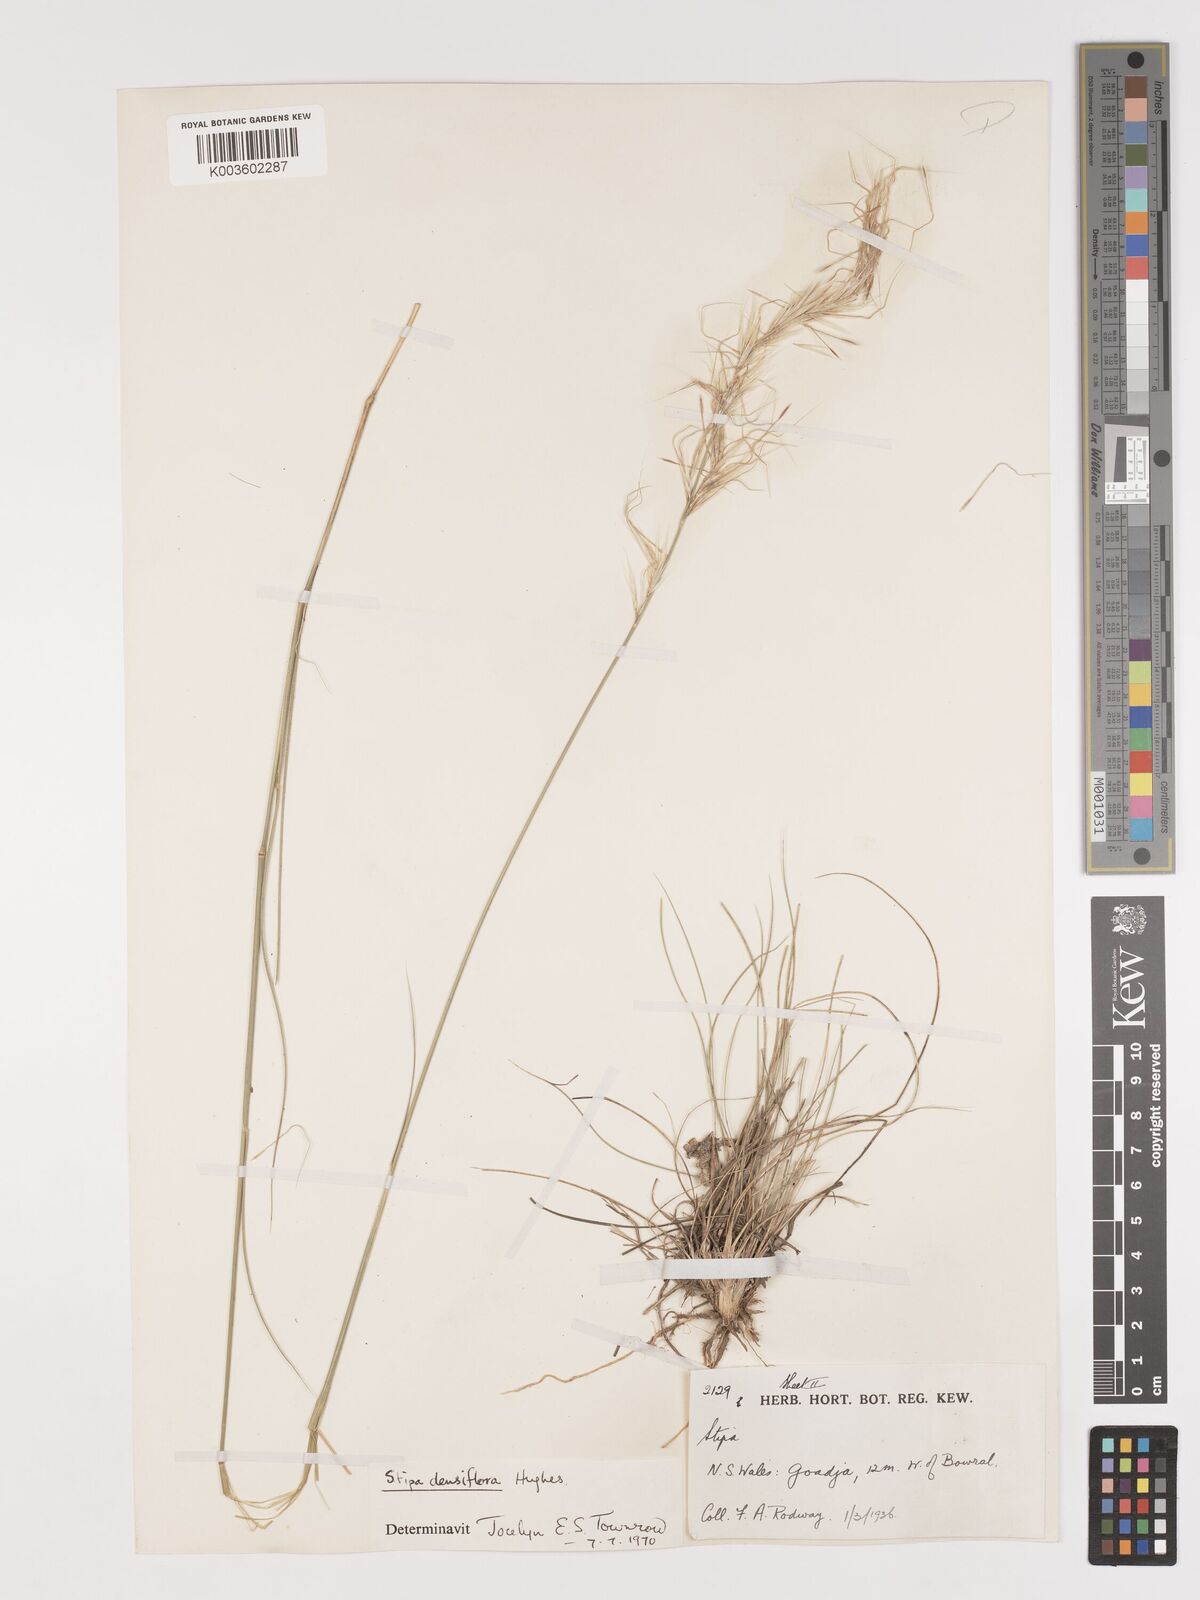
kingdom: Plantae
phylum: Tracheophyta
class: Liliopsida
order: Poales
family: Poaceae
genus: Stipa
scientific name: Stipa
